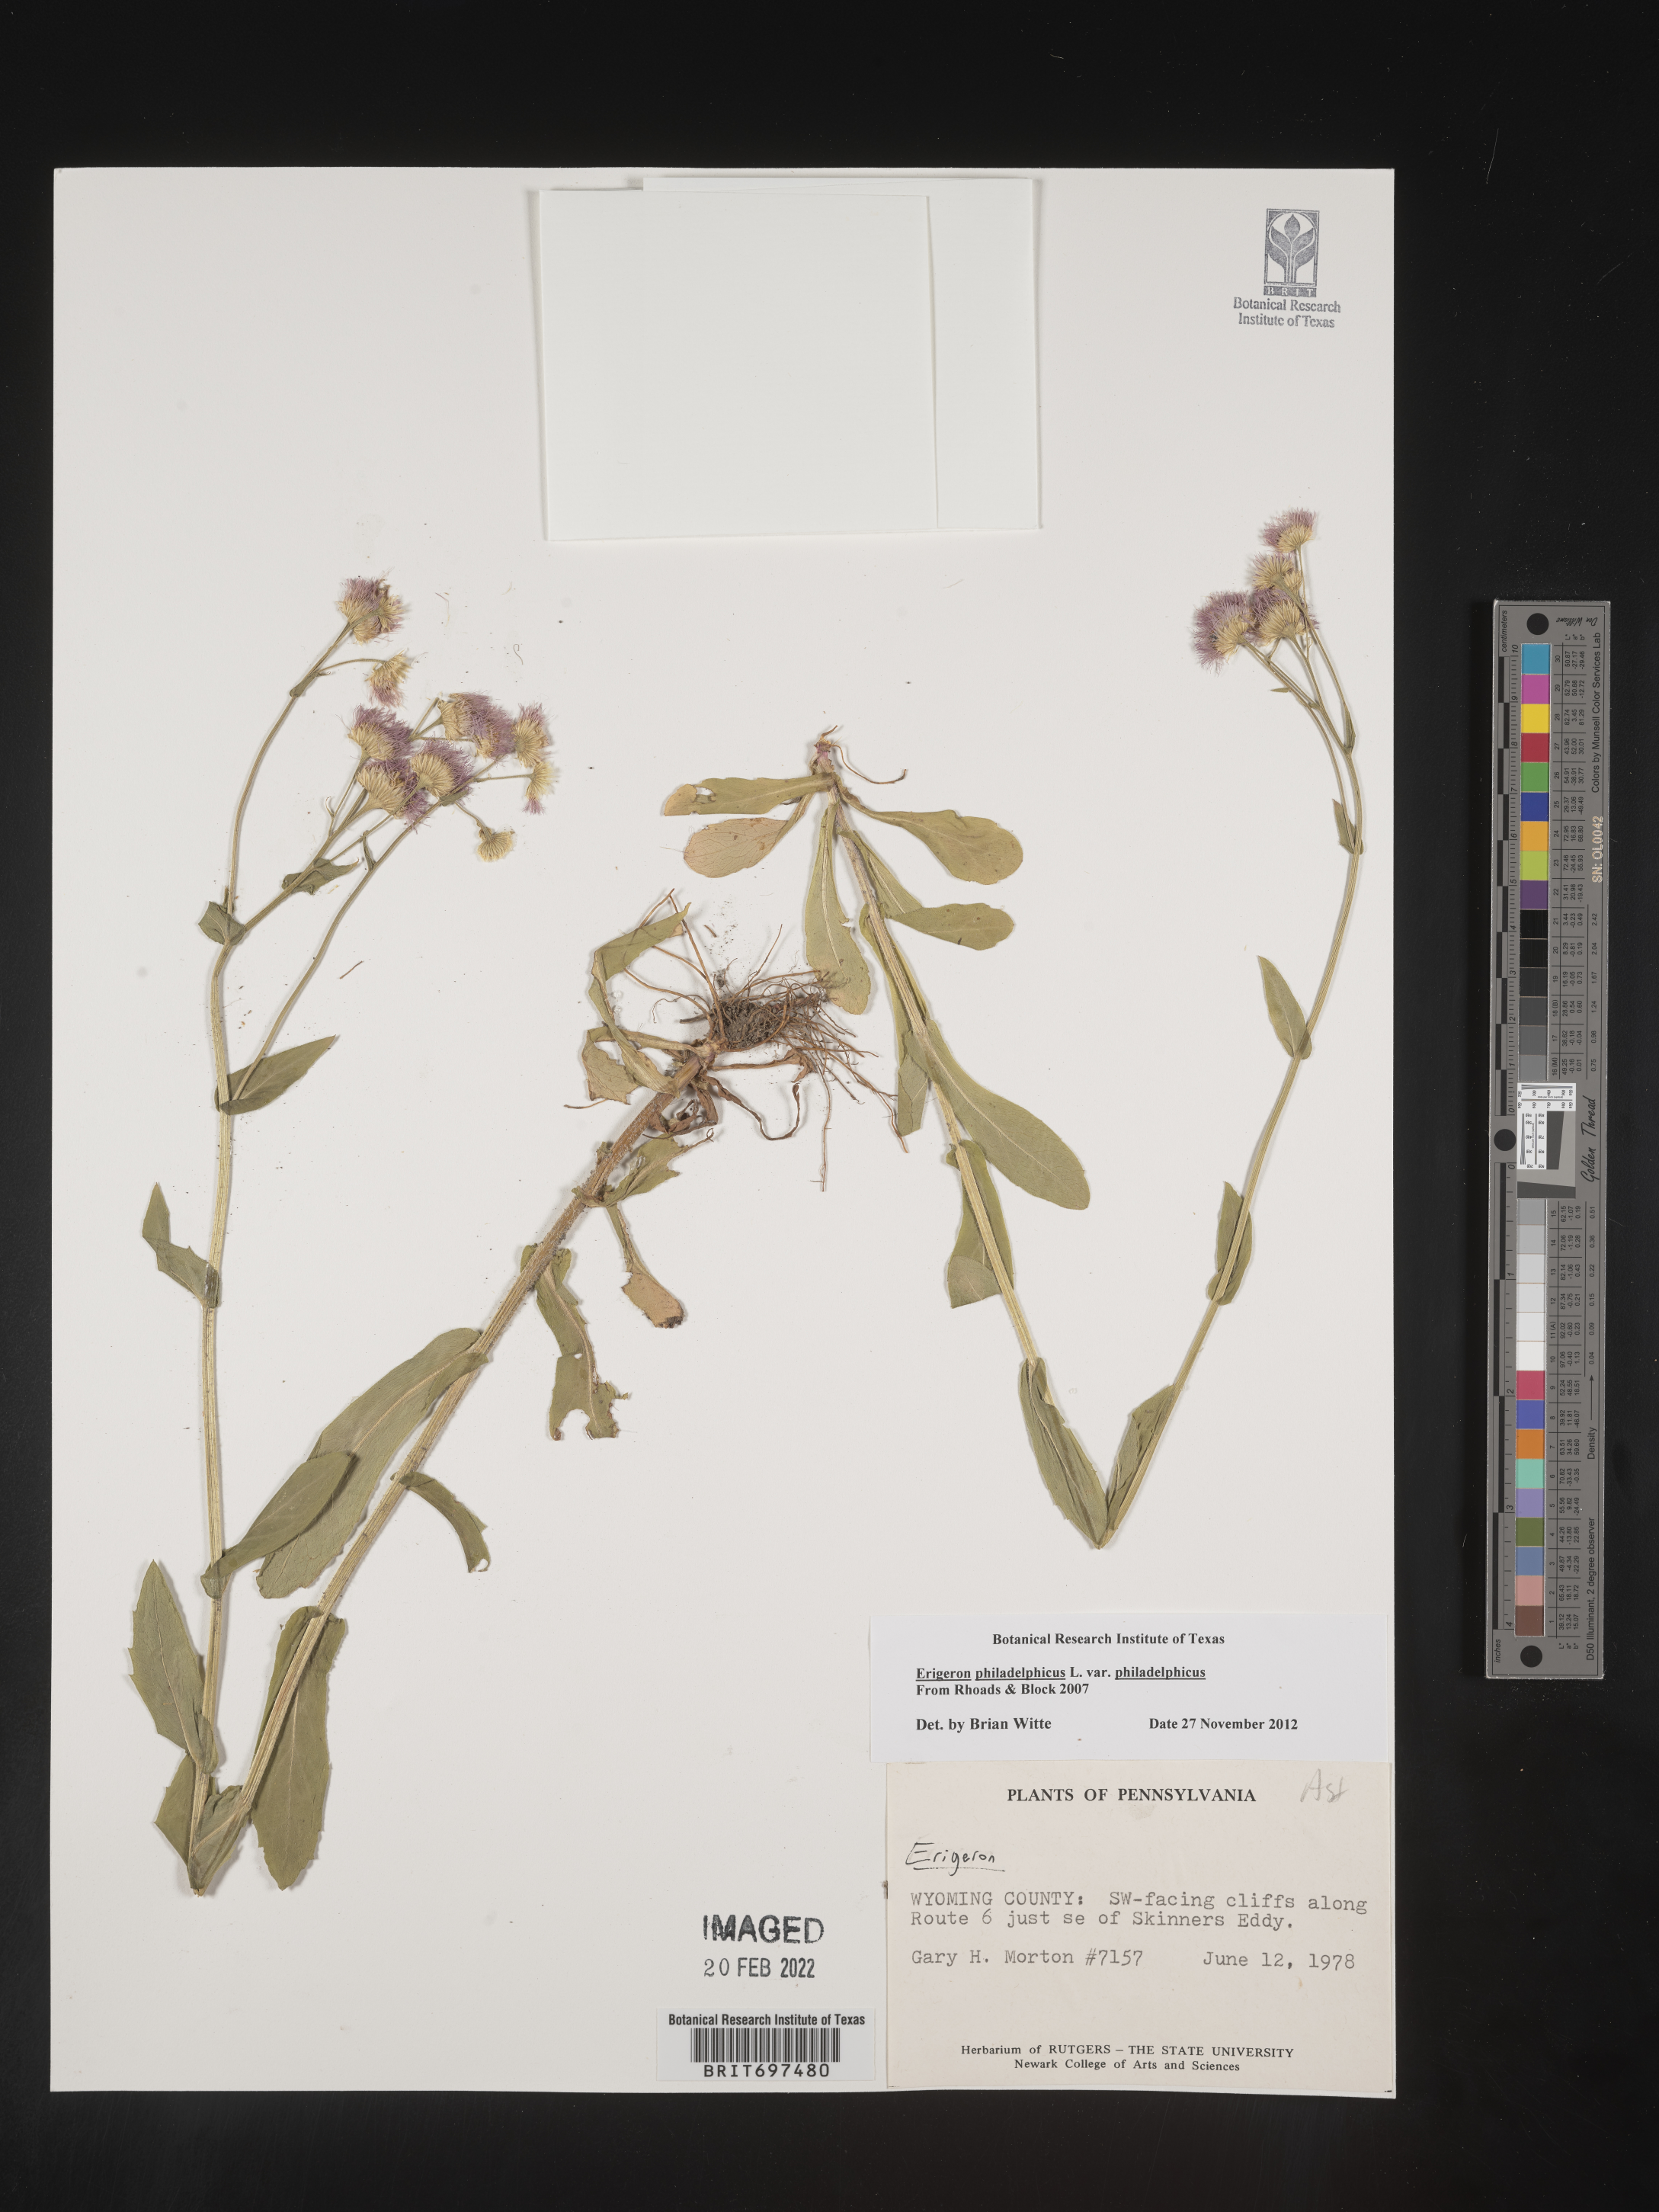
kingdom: Plantae
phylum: Tracheophyta
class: Magnoliopsida
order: Asterales
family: Asteraceae
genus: Erigeron
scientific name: Erigeron philadelphicus
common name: Robin's-plantain
